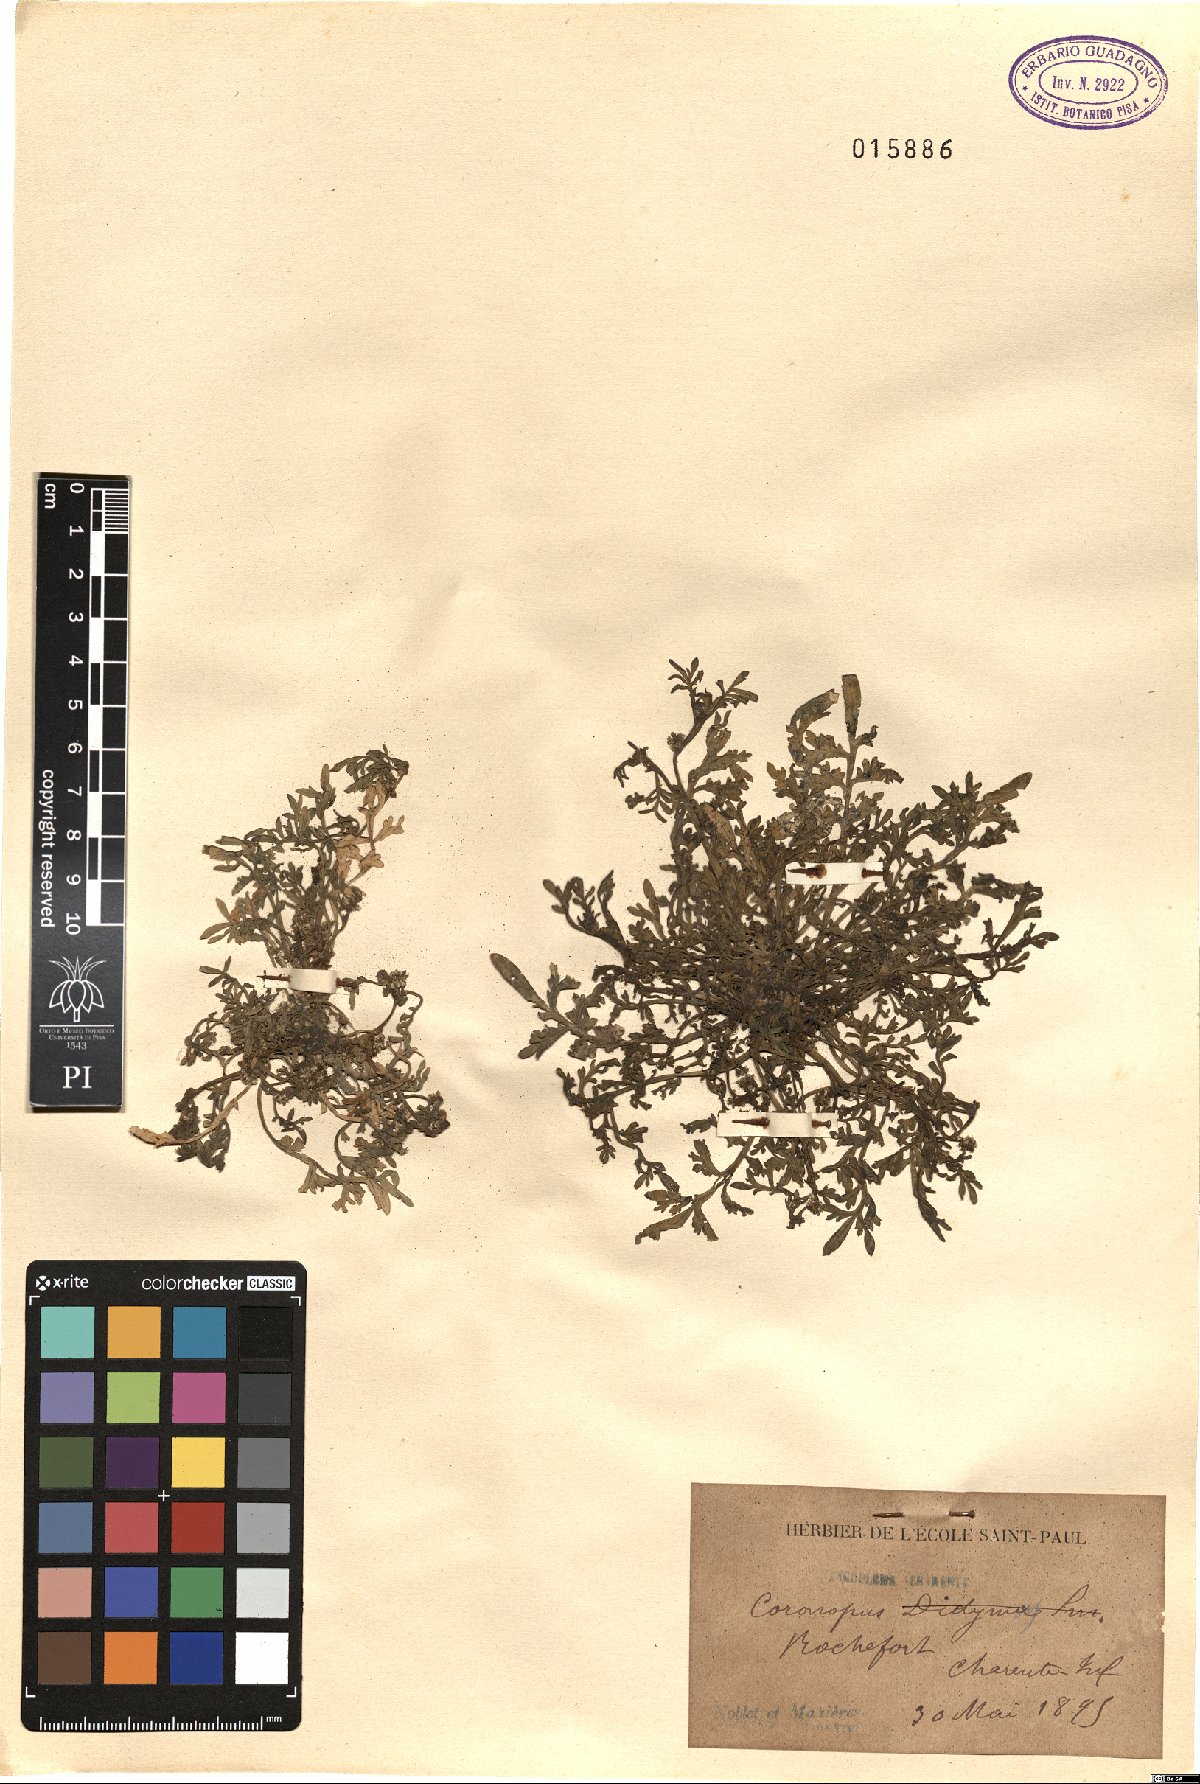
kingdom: Plantae
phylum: Tracheophyta
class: Magnoliopsida
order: Brassicales
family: Brassicaceae
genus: Lepidium
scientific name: Lepidium didymum
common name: Lesser swinecress
